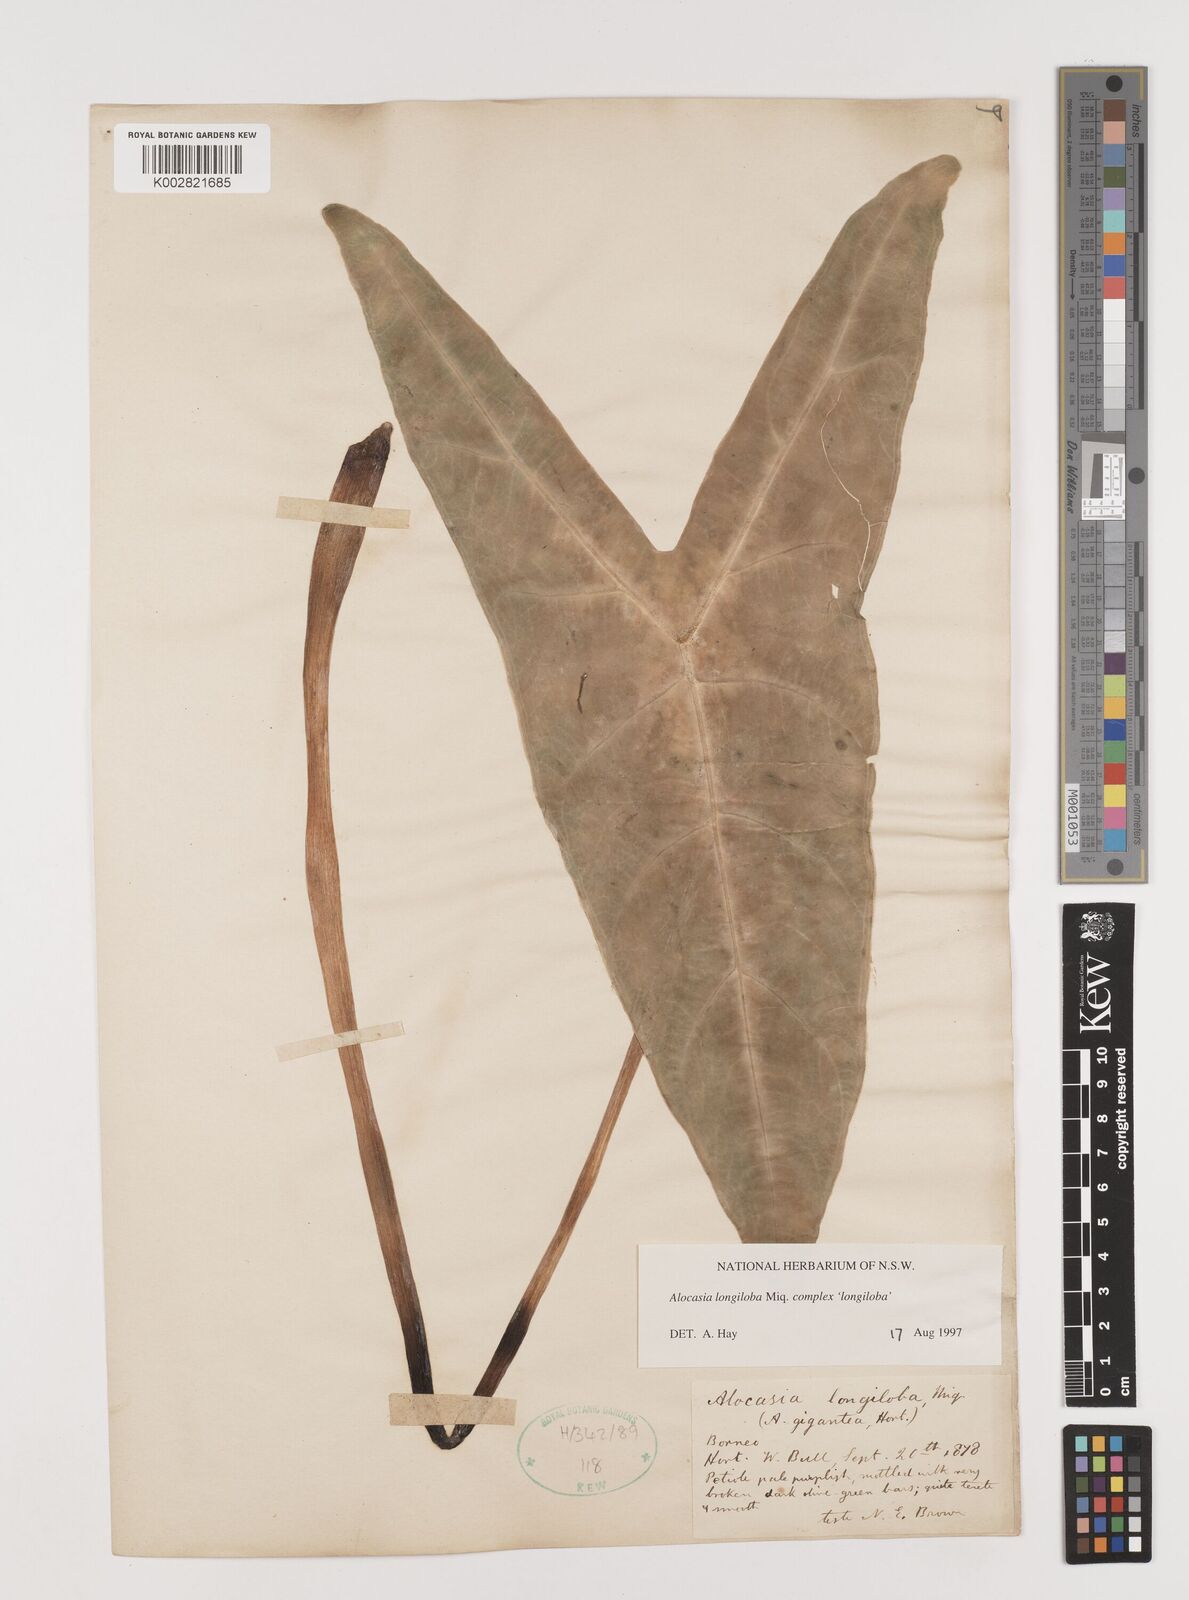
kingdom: Plantae
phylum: Tracheophyta
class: Liliopsida
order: Alismatales
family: Araceae
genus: Alocasia
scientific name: Alocasia longiloba
